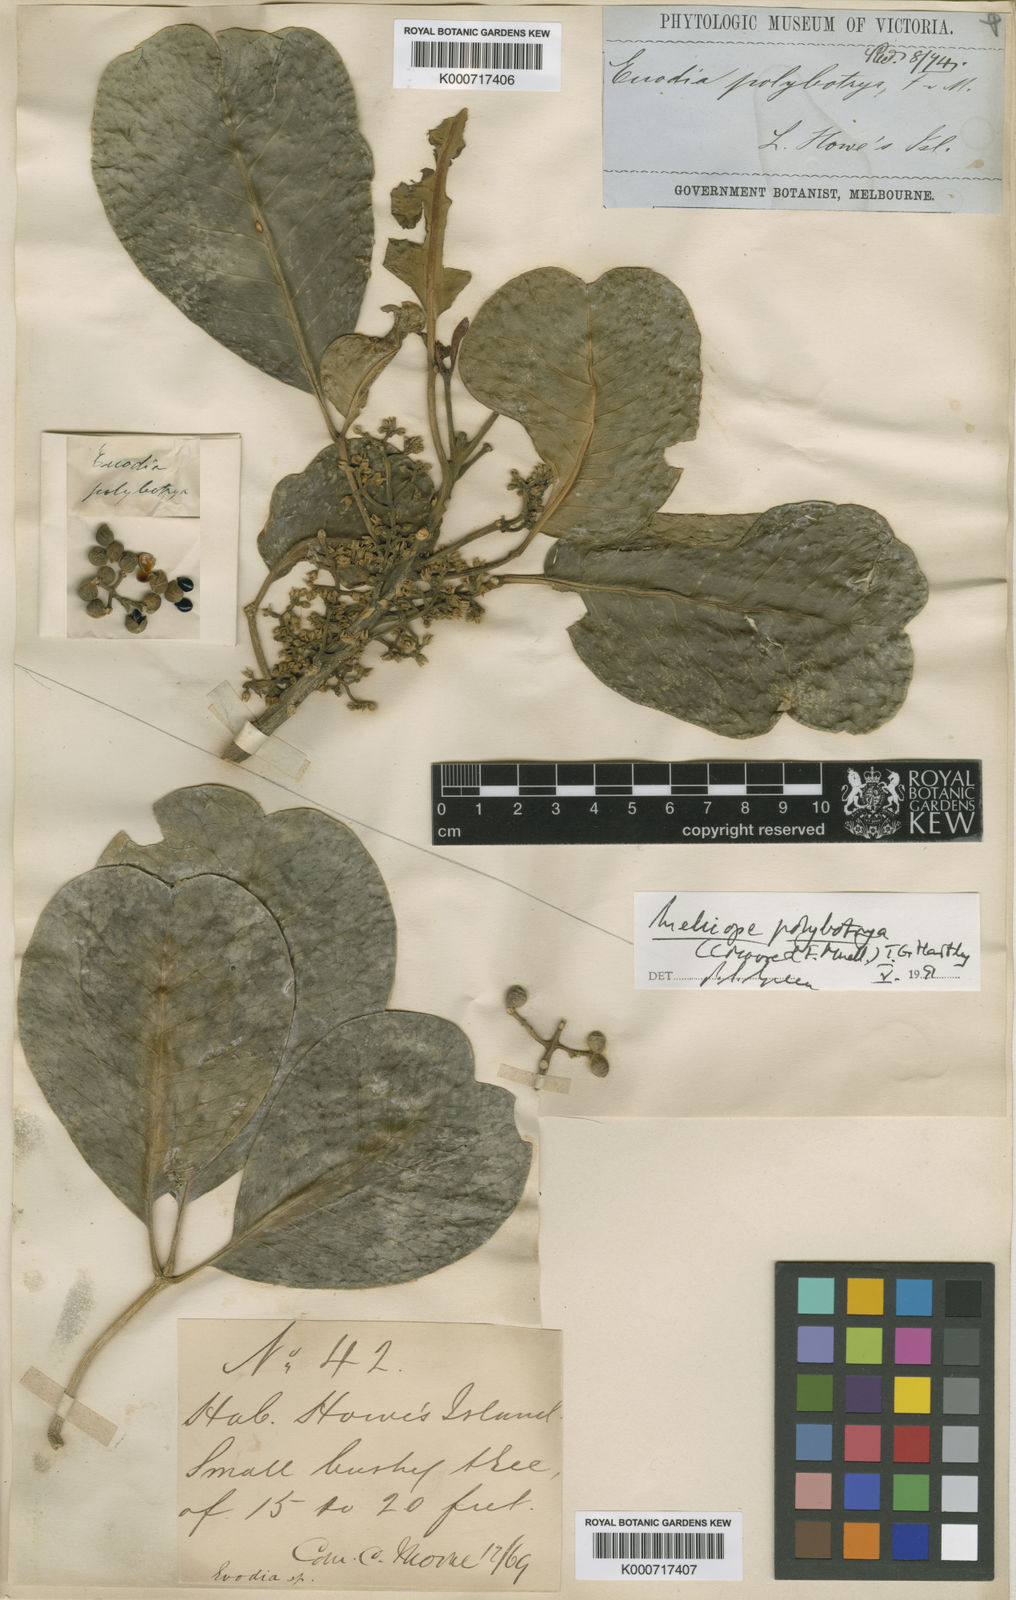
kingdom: Plantae
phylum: Tracheophyta
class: Magnoliopsida
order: Sapindales
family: Rutaceae
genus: Melicope
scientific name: Melicope
